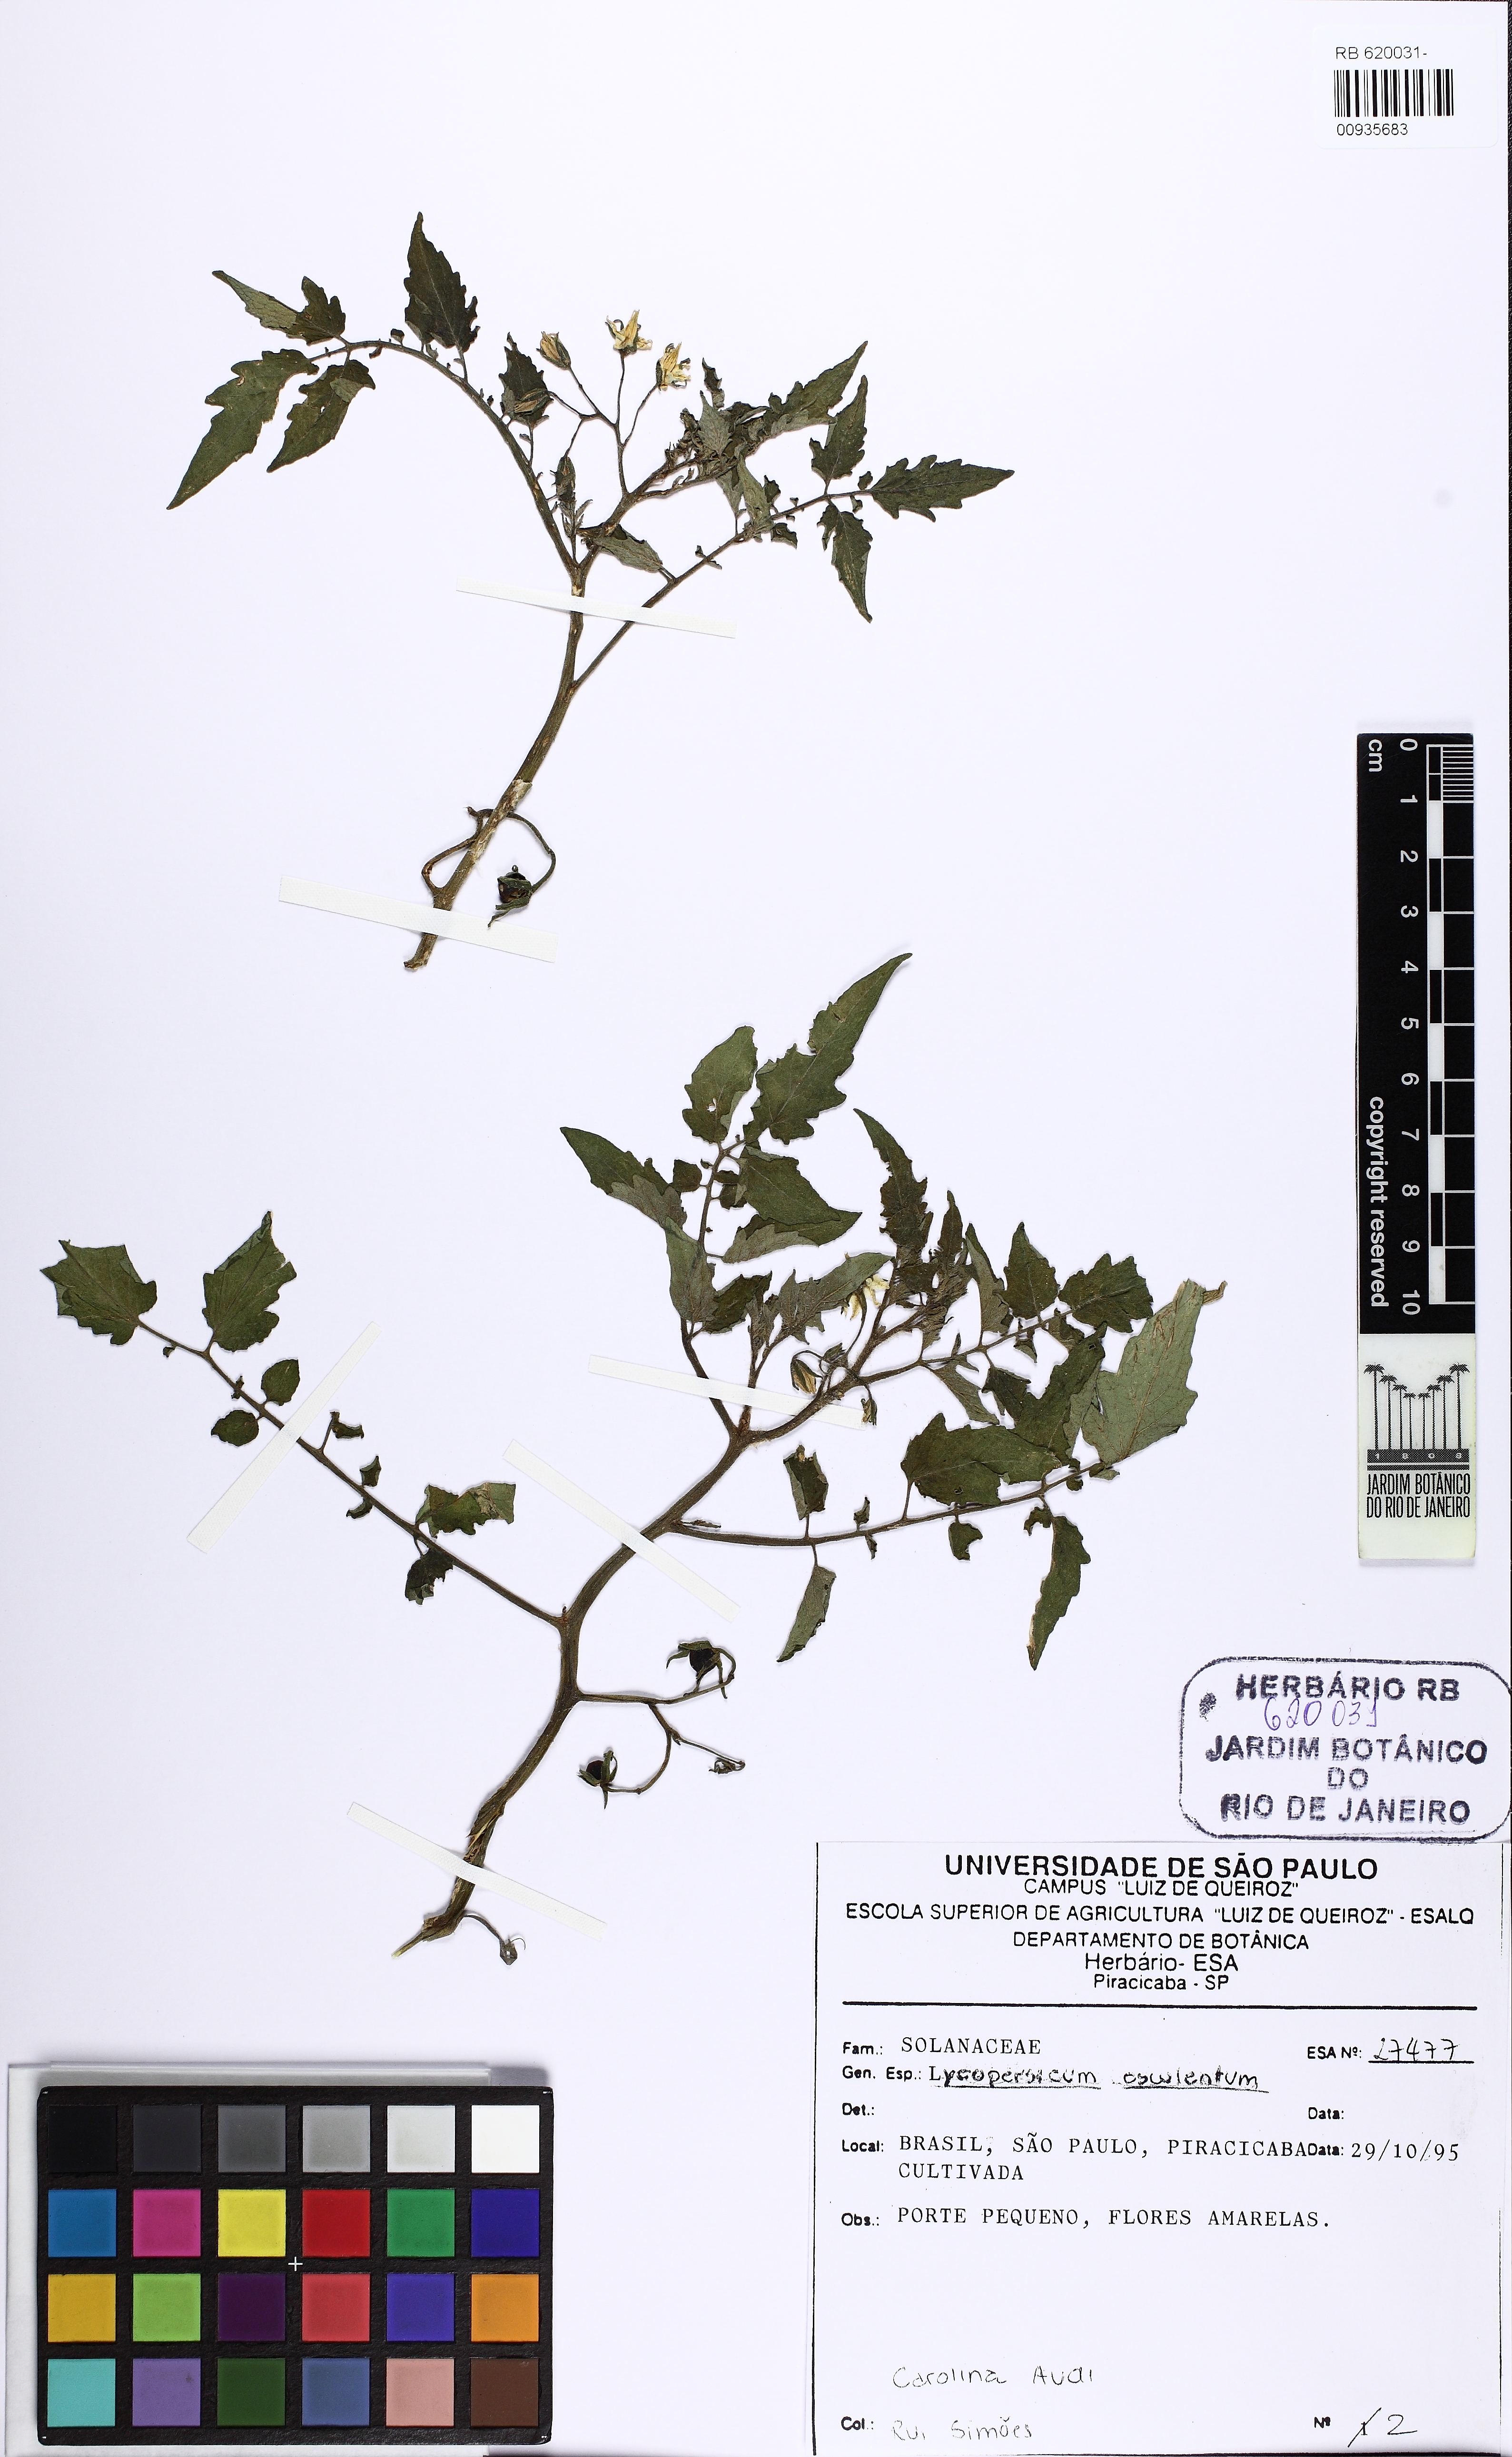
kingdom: Plantae
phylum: Tracheophyta
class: Magnoliopsida
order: Solanales
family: Solanaceae
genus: Solanum
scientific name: Solanum
